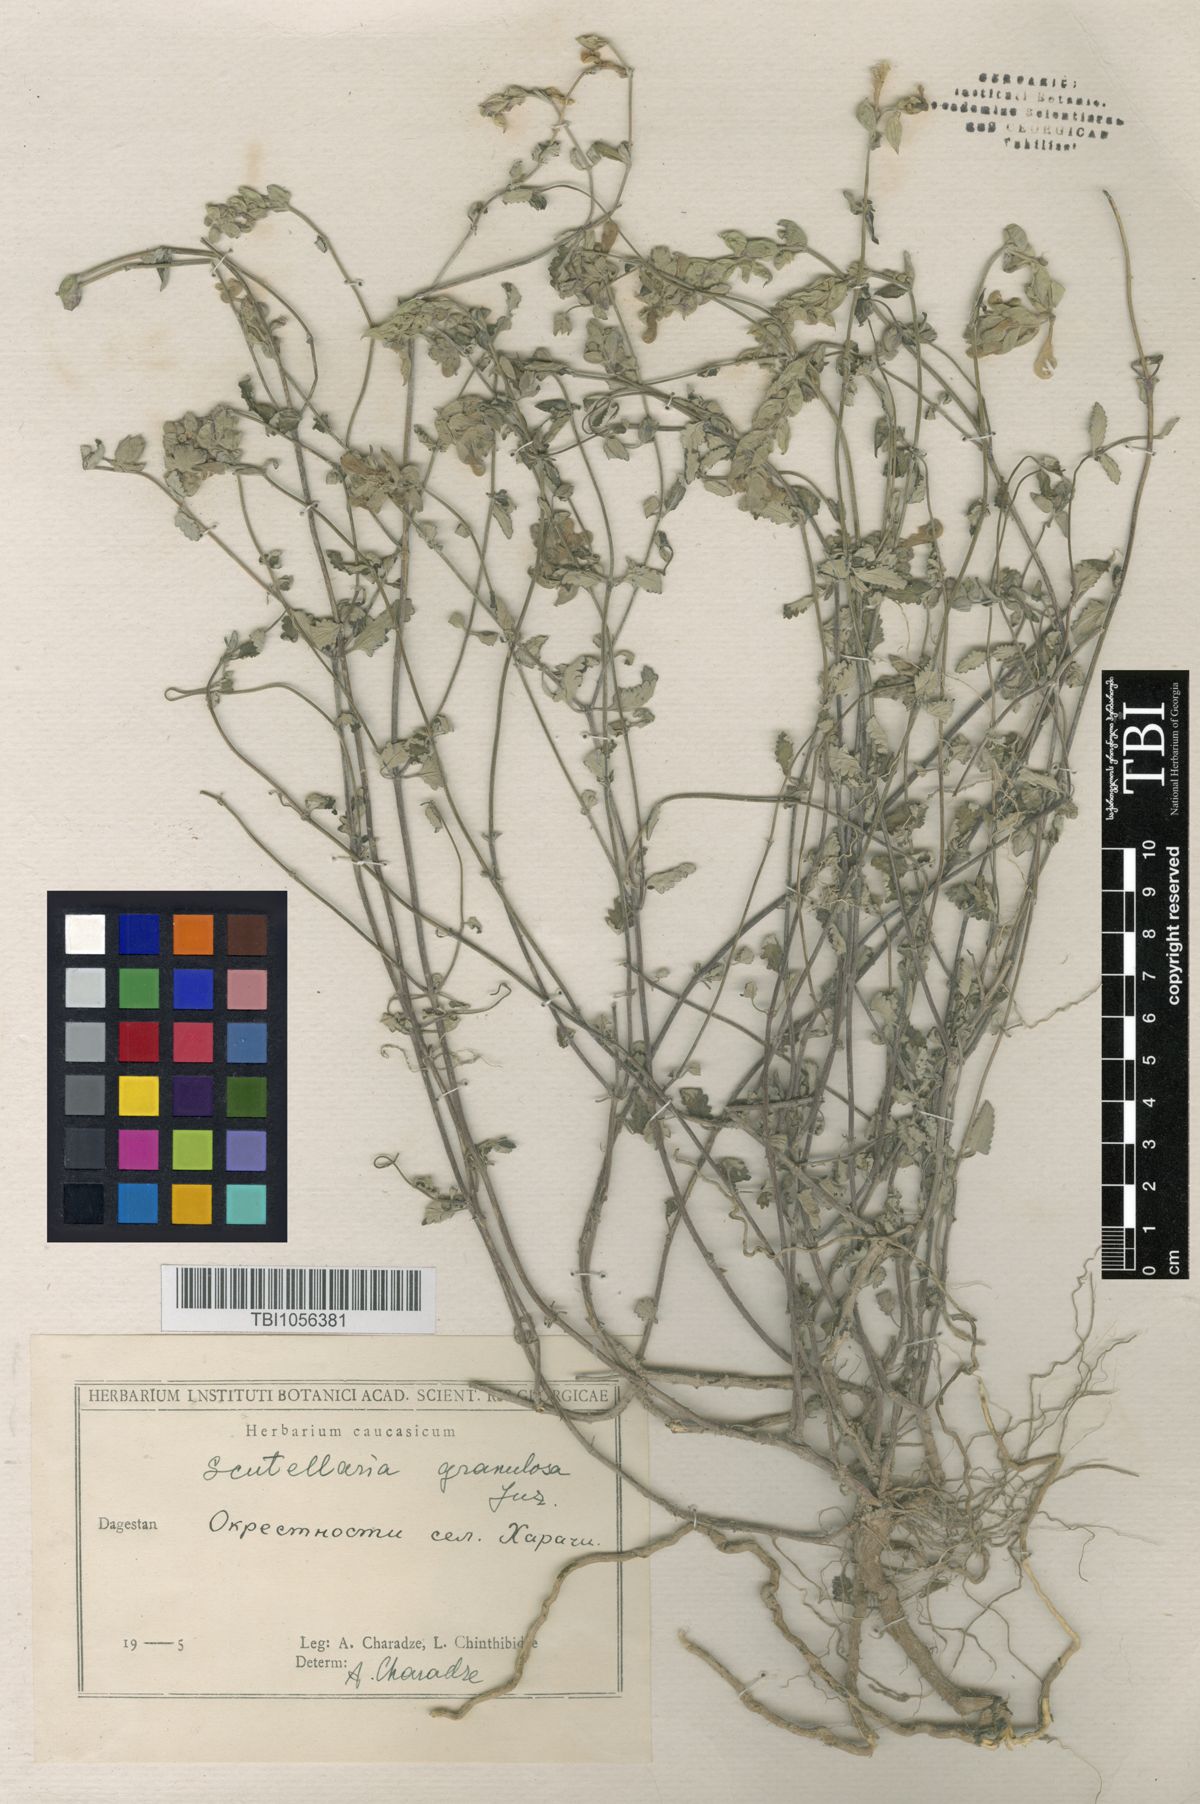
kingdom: Plantae
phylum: Tracheophyta
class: Magnoliopsida
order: Lamiales
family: Lamiaceae
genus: Scutellaria
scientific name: Scutellaria granulosa
